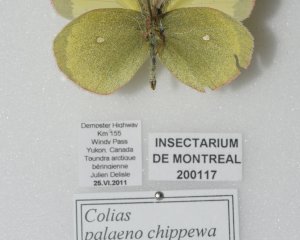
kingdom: Animalia
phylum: Arthropoda
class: Insecta
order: Lepidoptera
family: Pieridae
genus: Colias
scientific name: Colias palaeno
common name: Chippewa Sulphur
